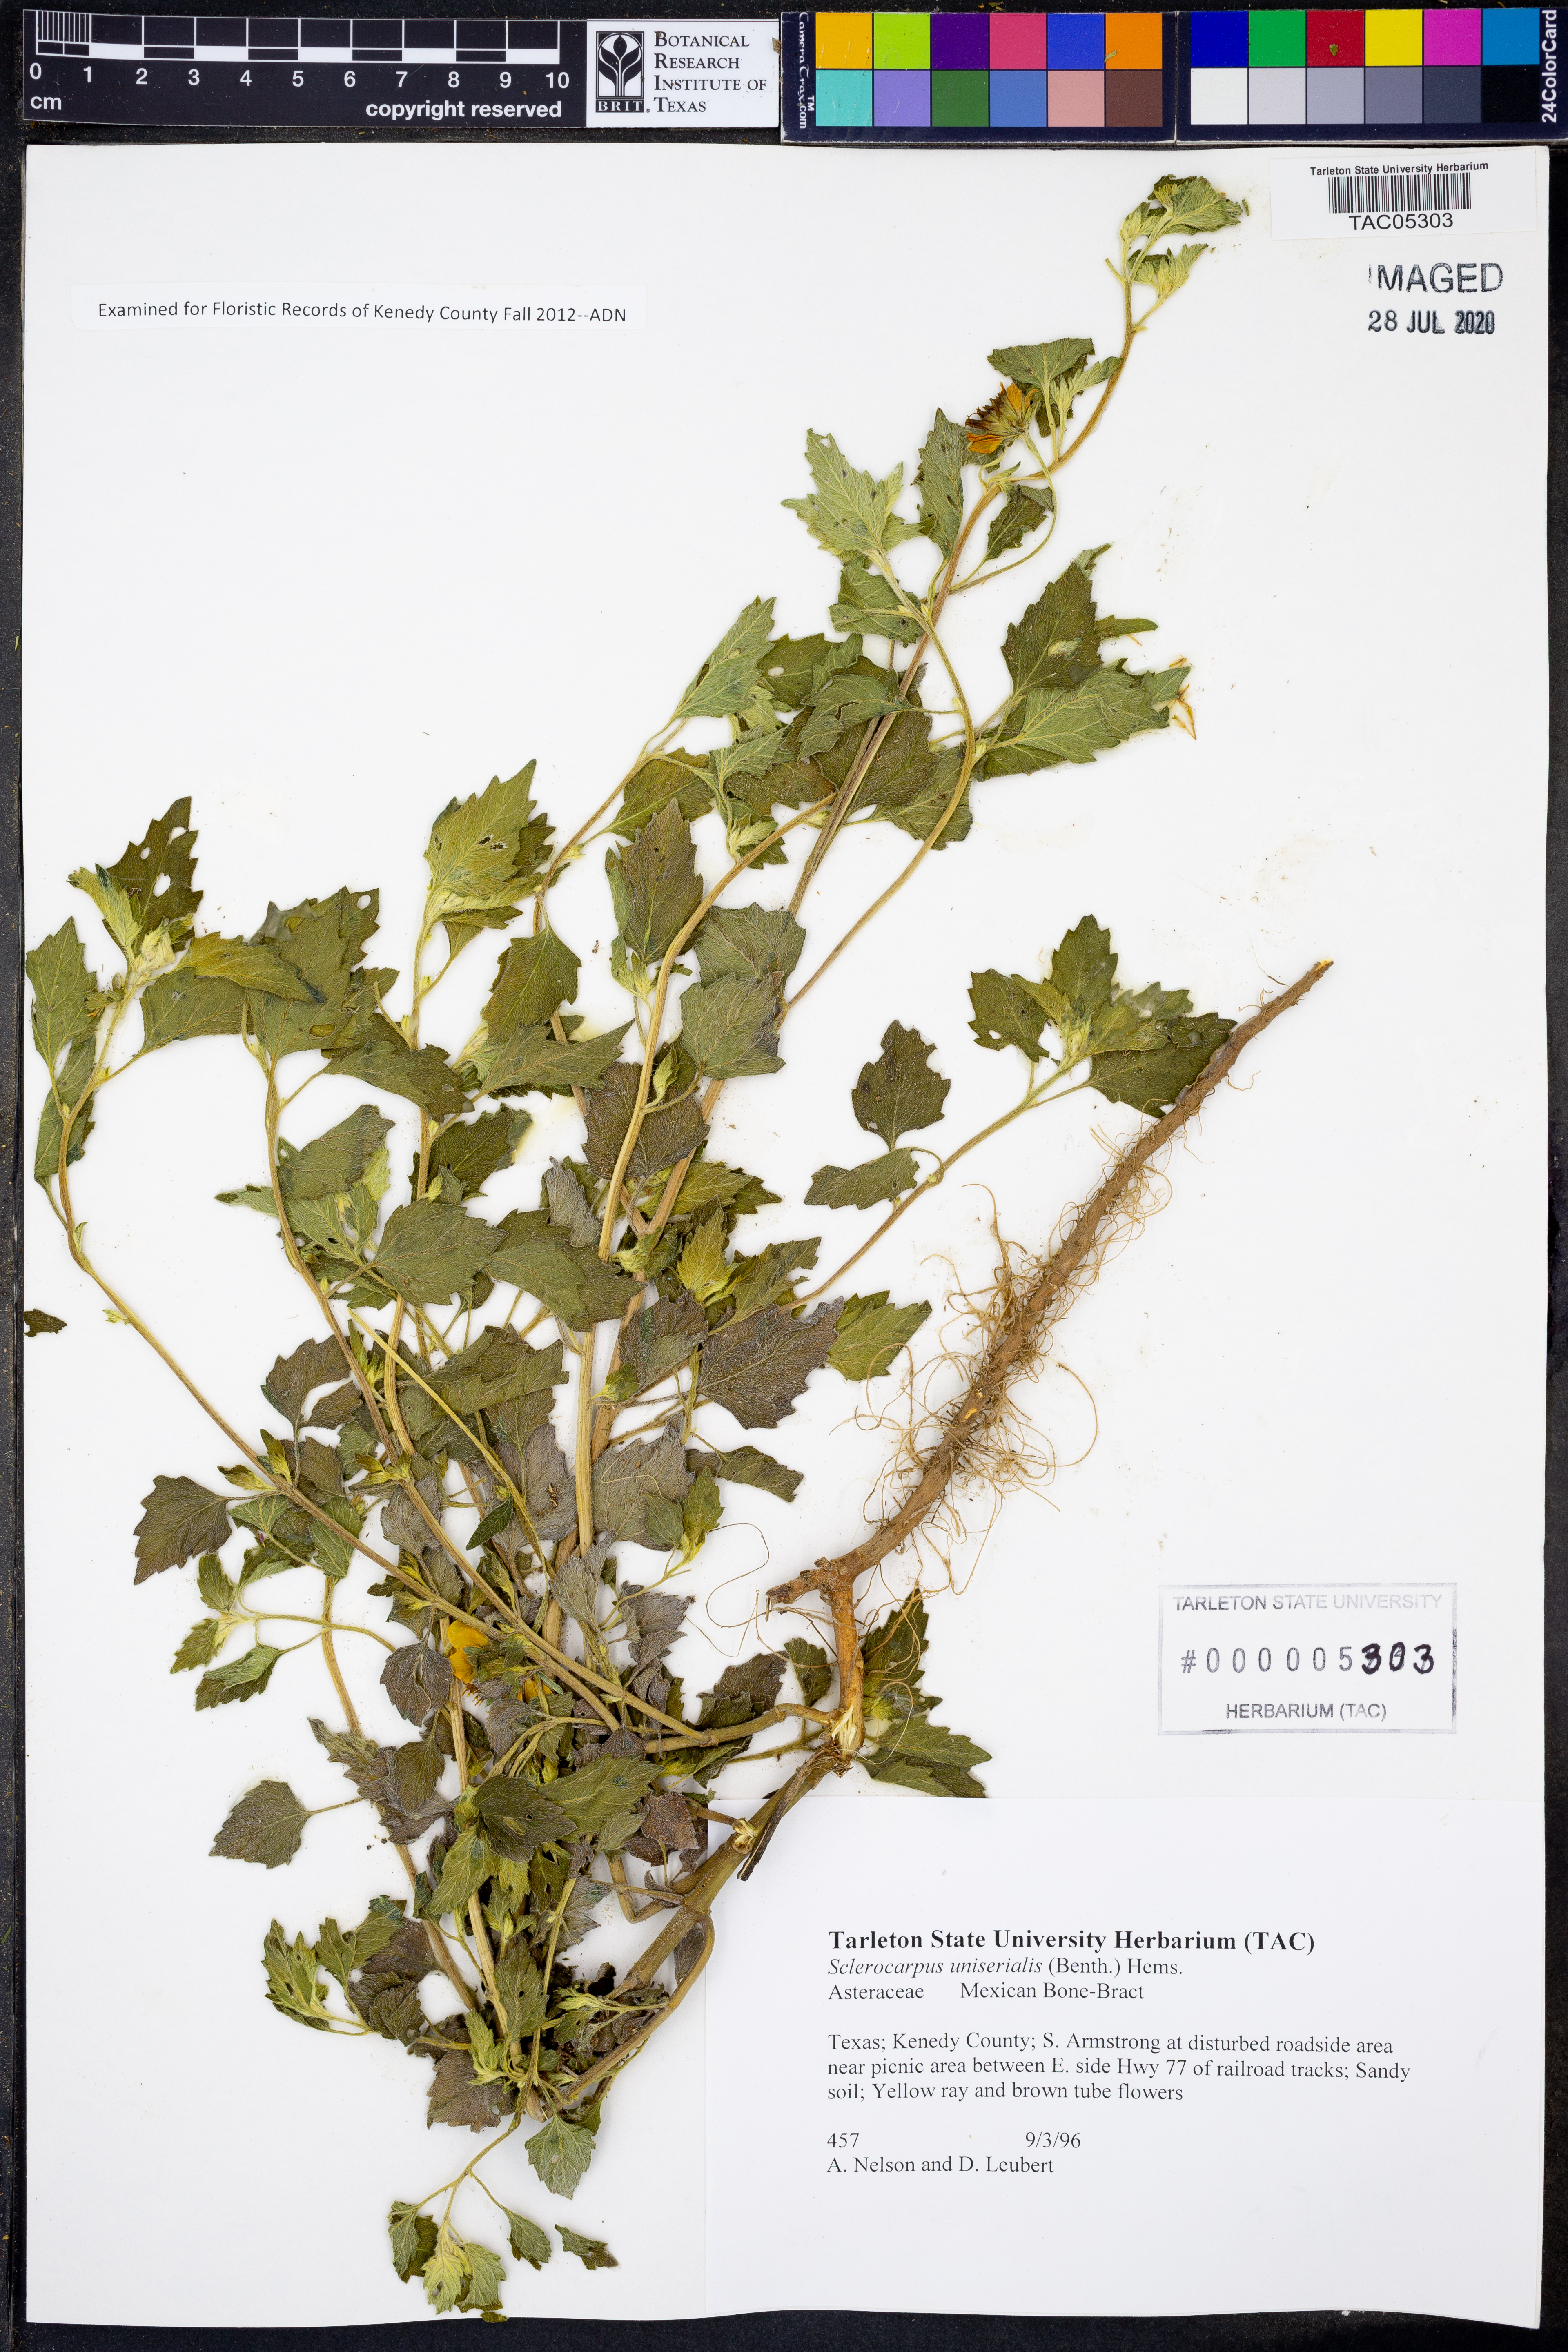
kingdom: Plantae
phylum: Tracheophyta
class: Magnoliopsida
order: Asterales
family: Asteraceae
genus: Sclerocarpus
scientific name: Sclerocarpus uniserialis
